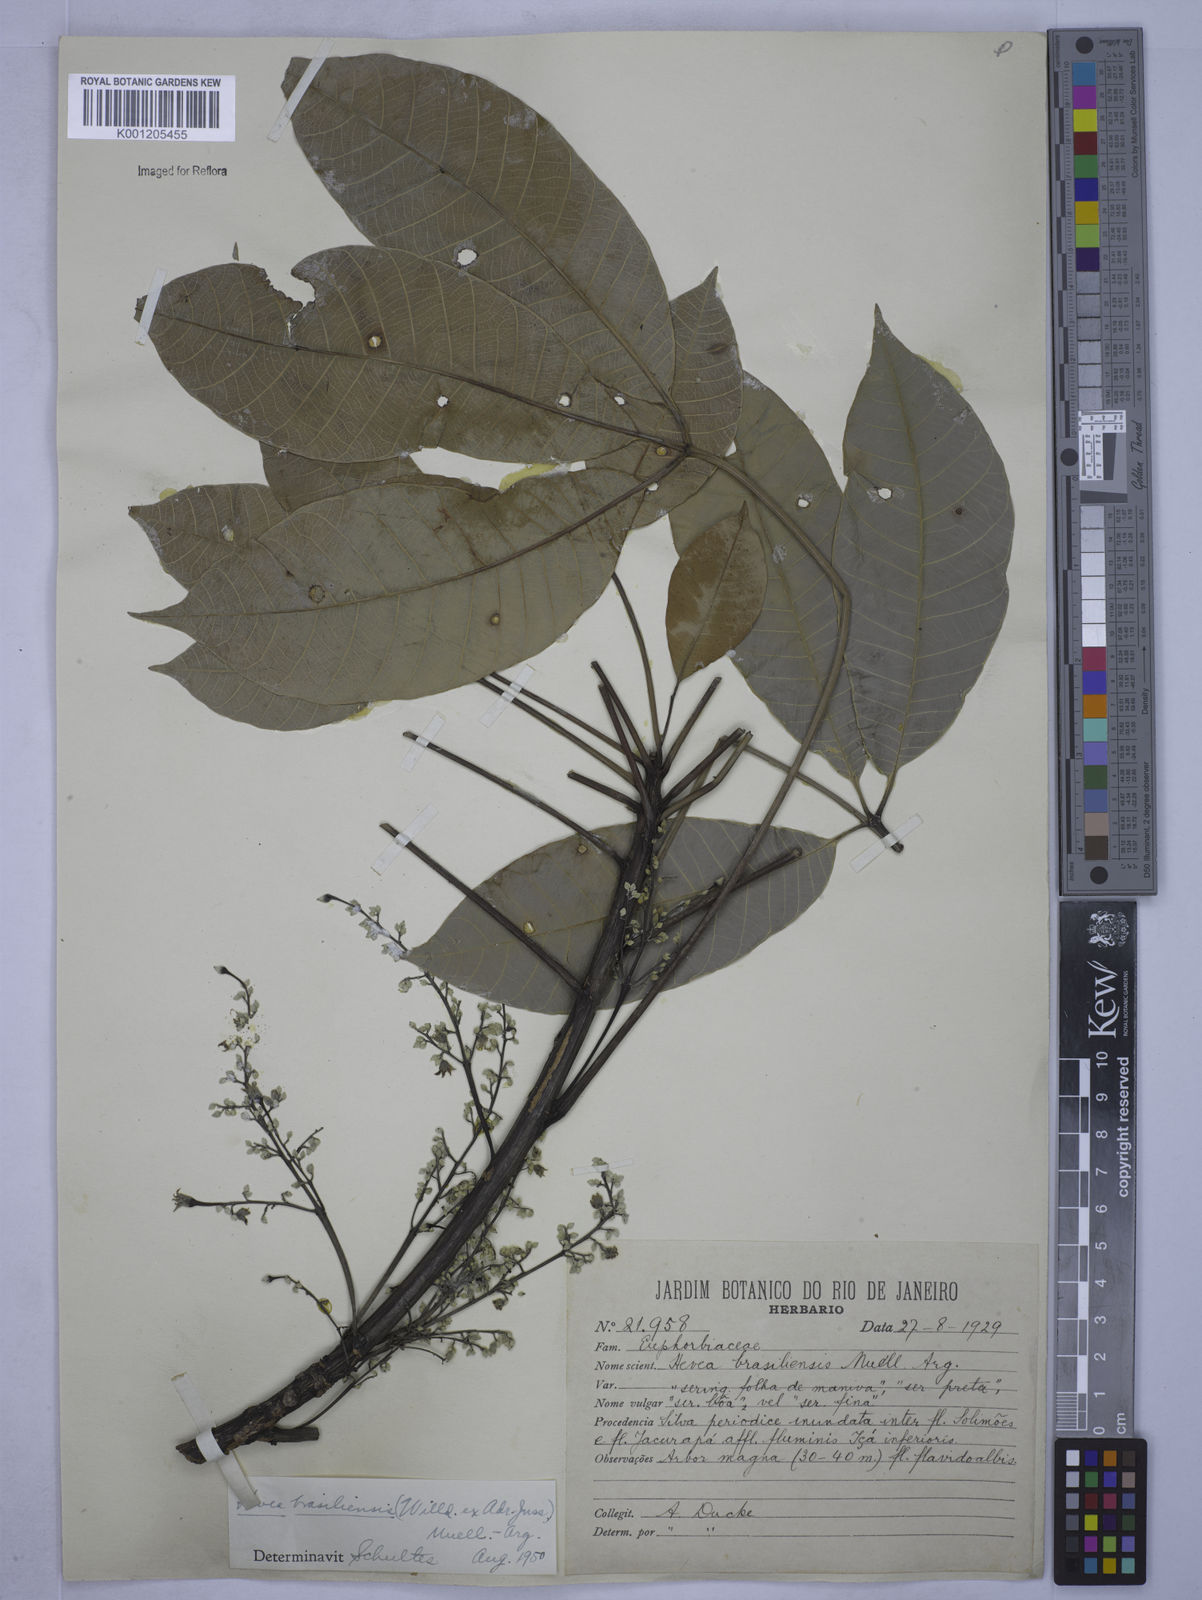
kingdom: Plantae
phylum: Tracheophyta
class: Magnoliopsida
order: Malpighiales
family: Euphorbiaceae
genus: Hevea
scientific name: Hevea
